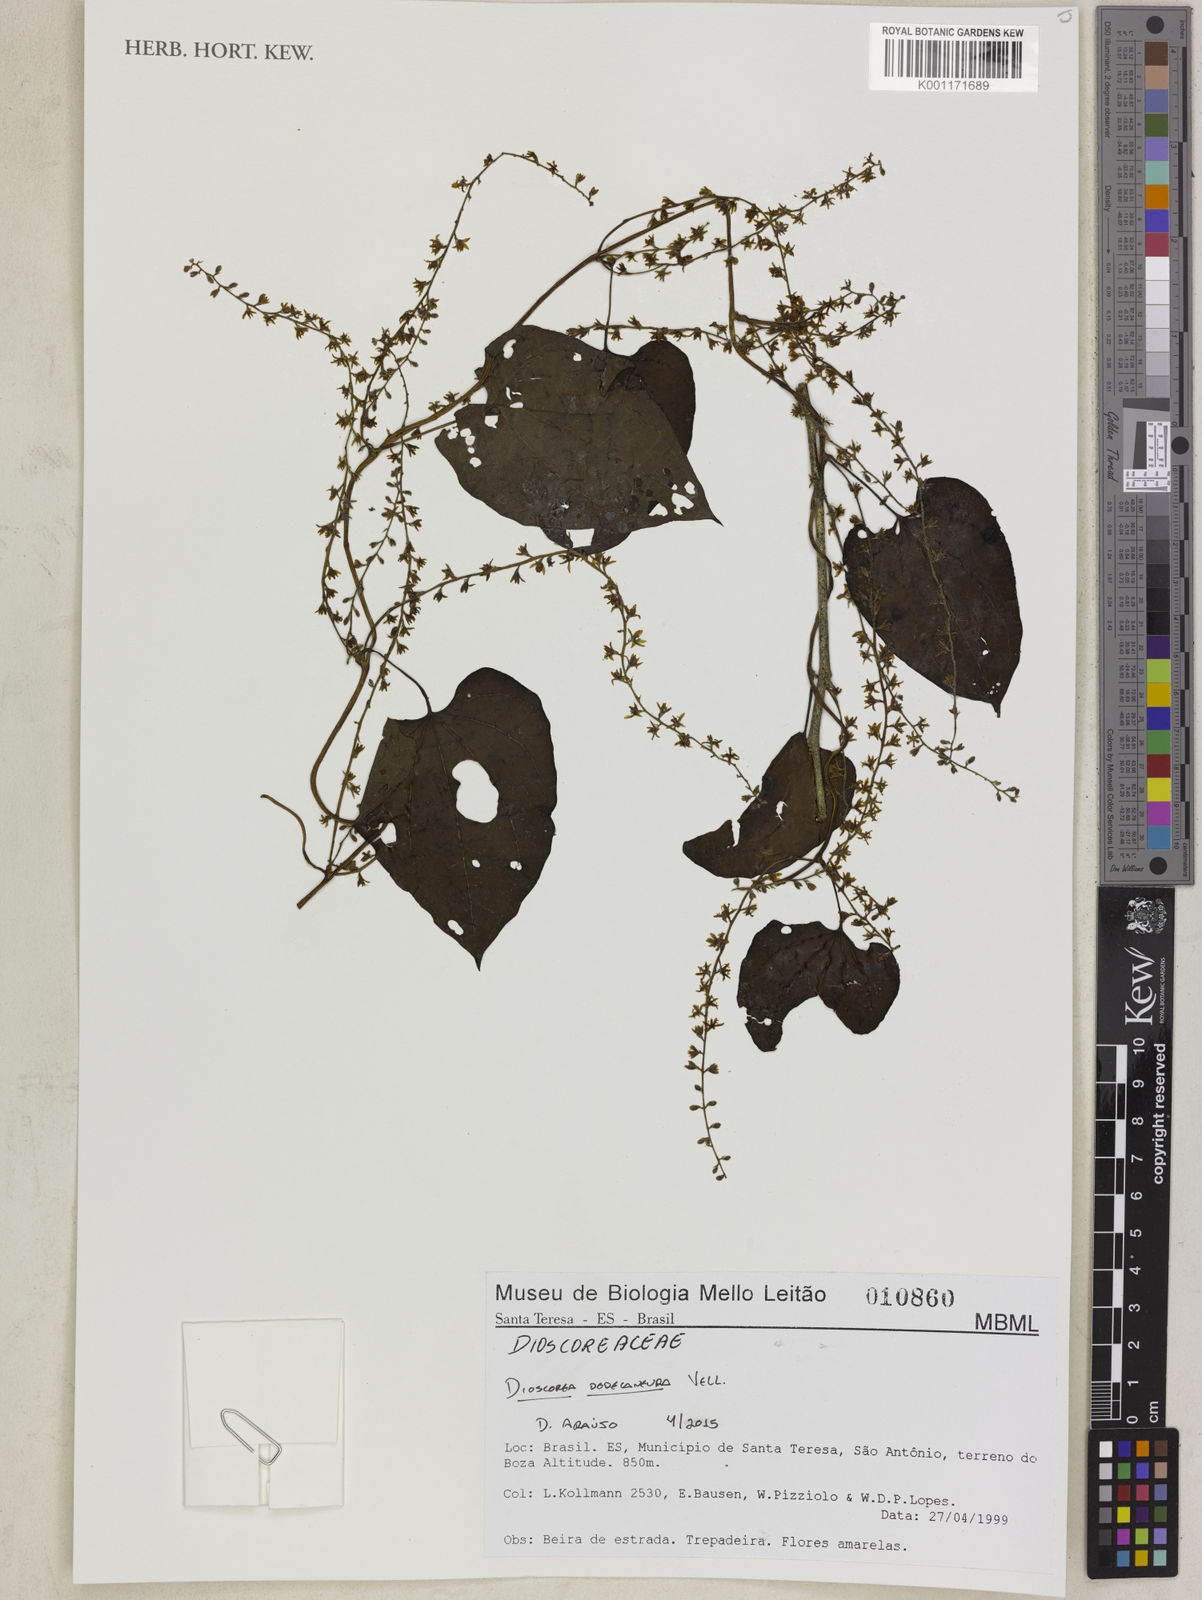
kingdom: Plantae
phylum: Tracheophyta
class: Liliopsida
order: Dioscoreales
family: Dioscoreaceae
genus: Dioscorea
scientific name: Dioscorea dodecaneura
